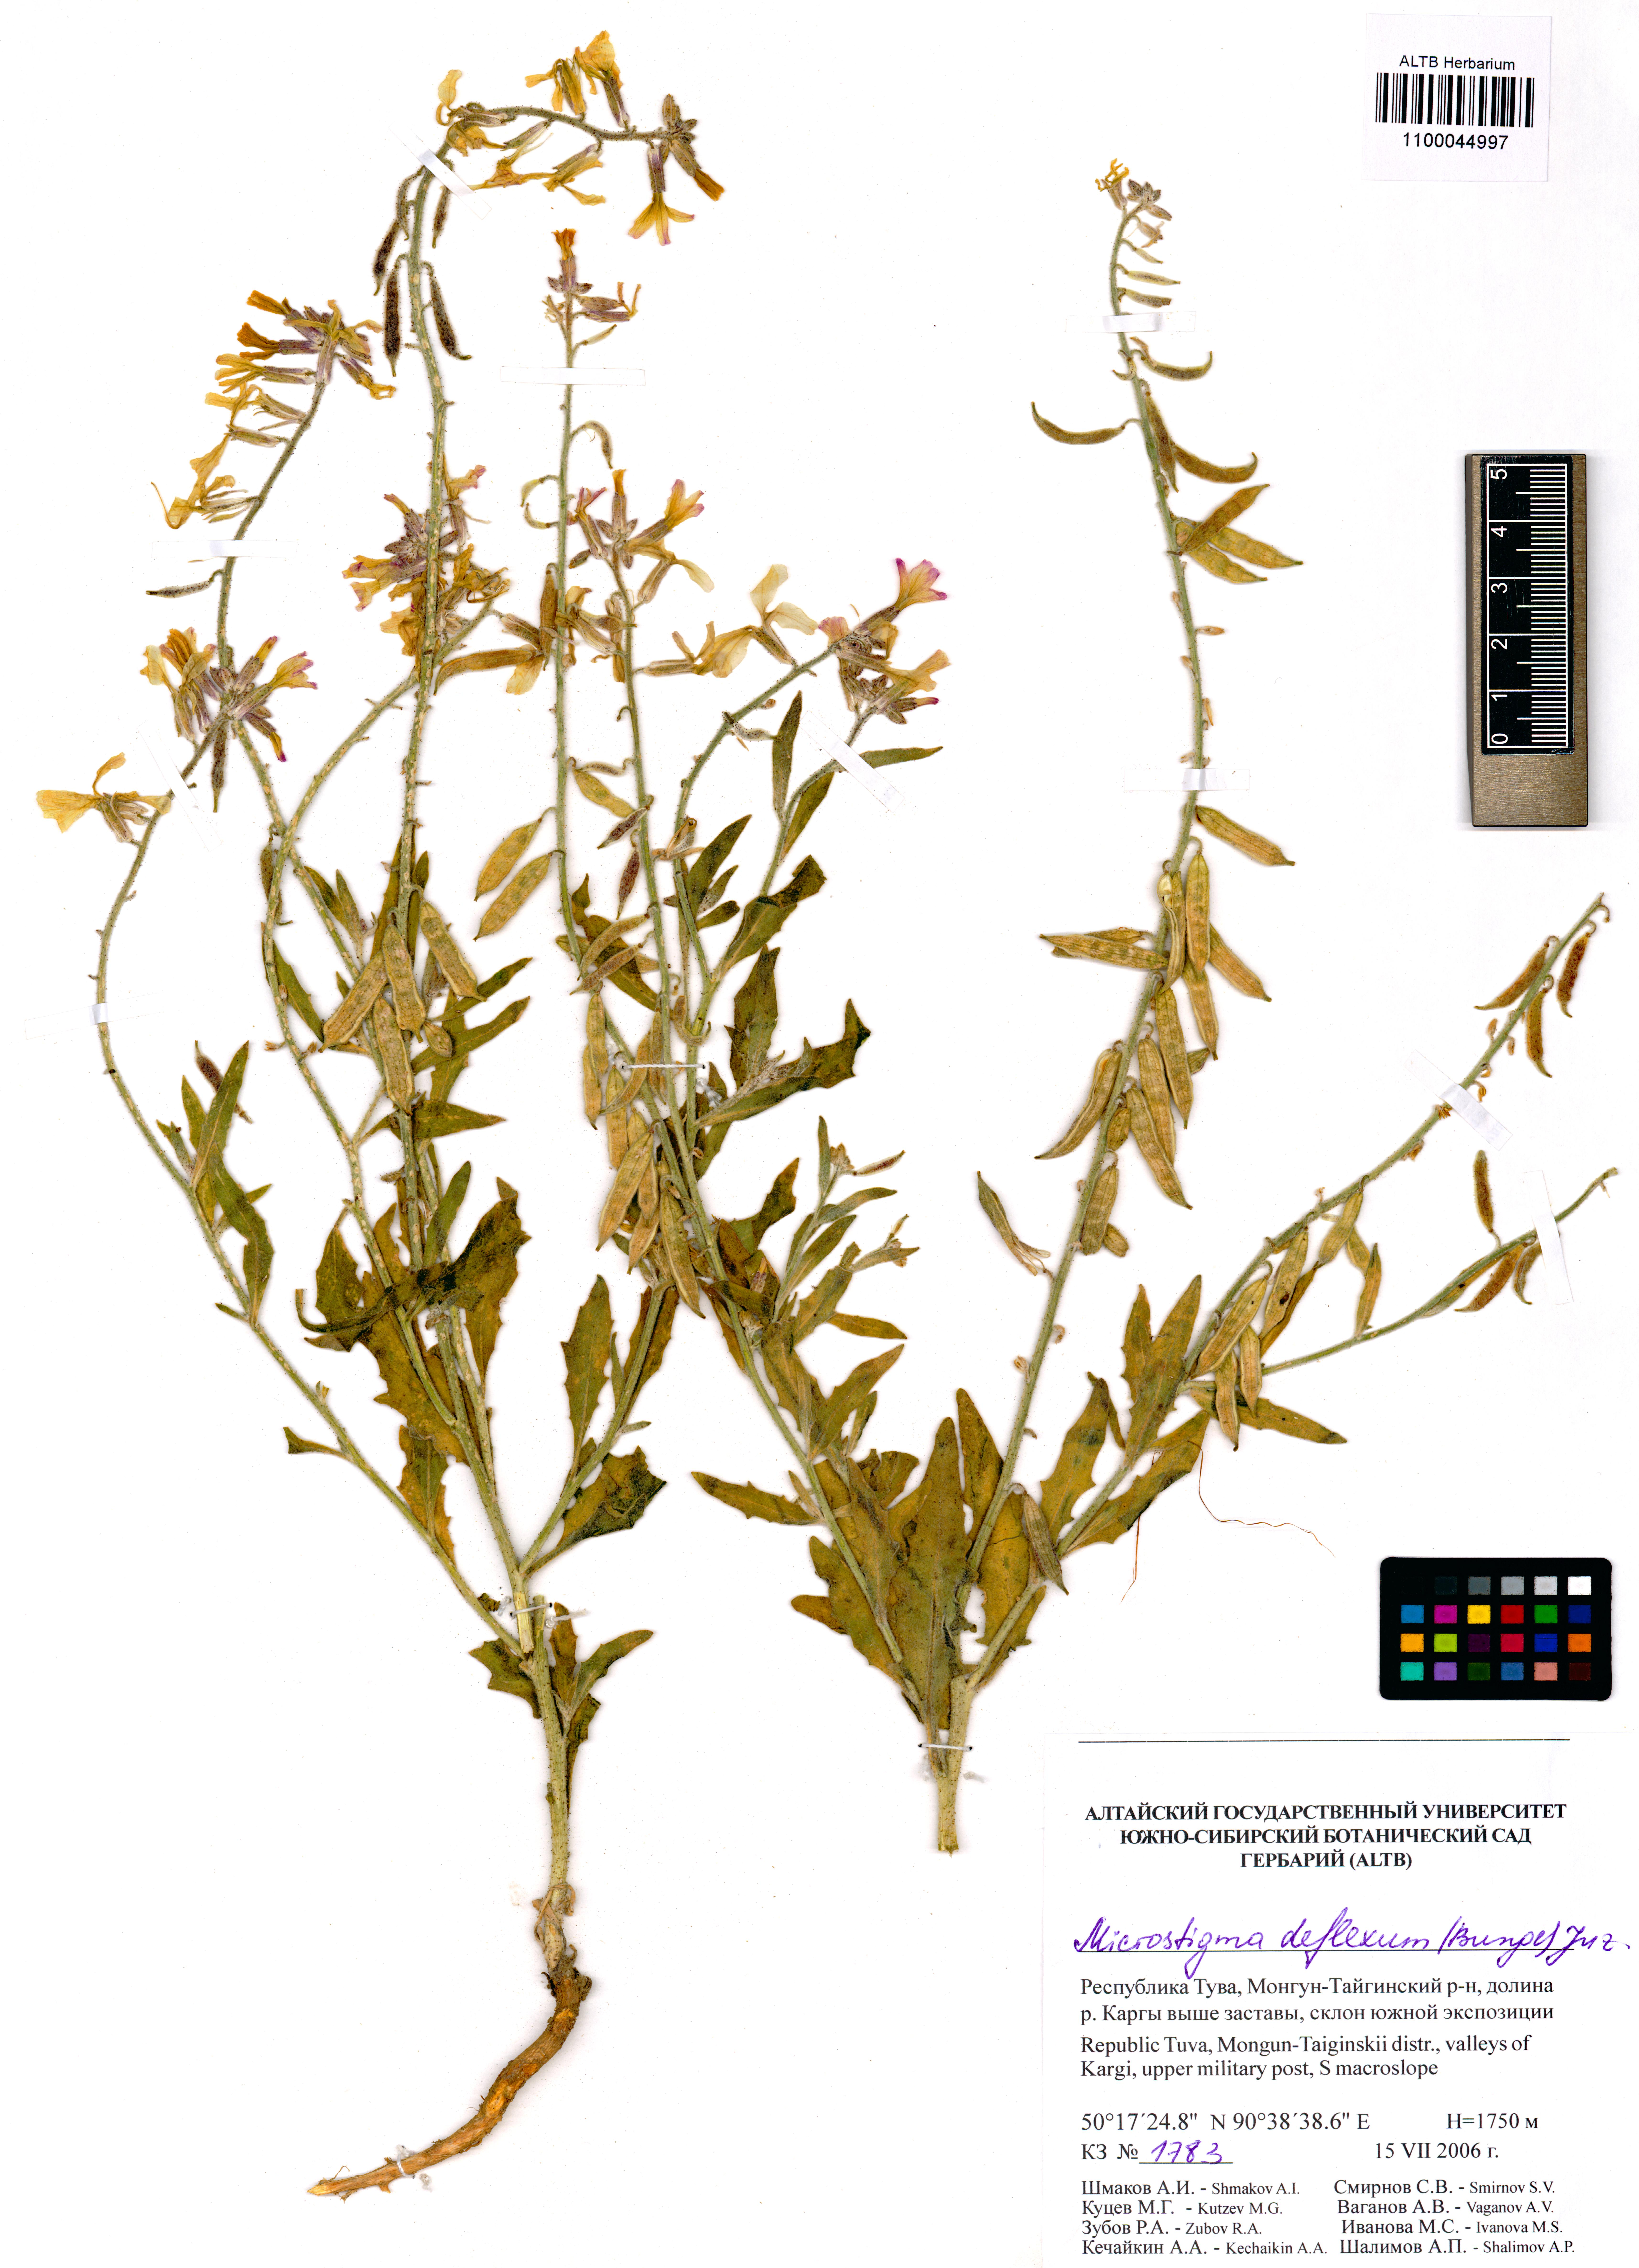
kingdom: Plantae
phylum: Tracheophyta
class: Magnoliopsida
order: Brassicales
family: Brassicaceae
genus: Microstigma
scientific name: Microstigma deflexum
